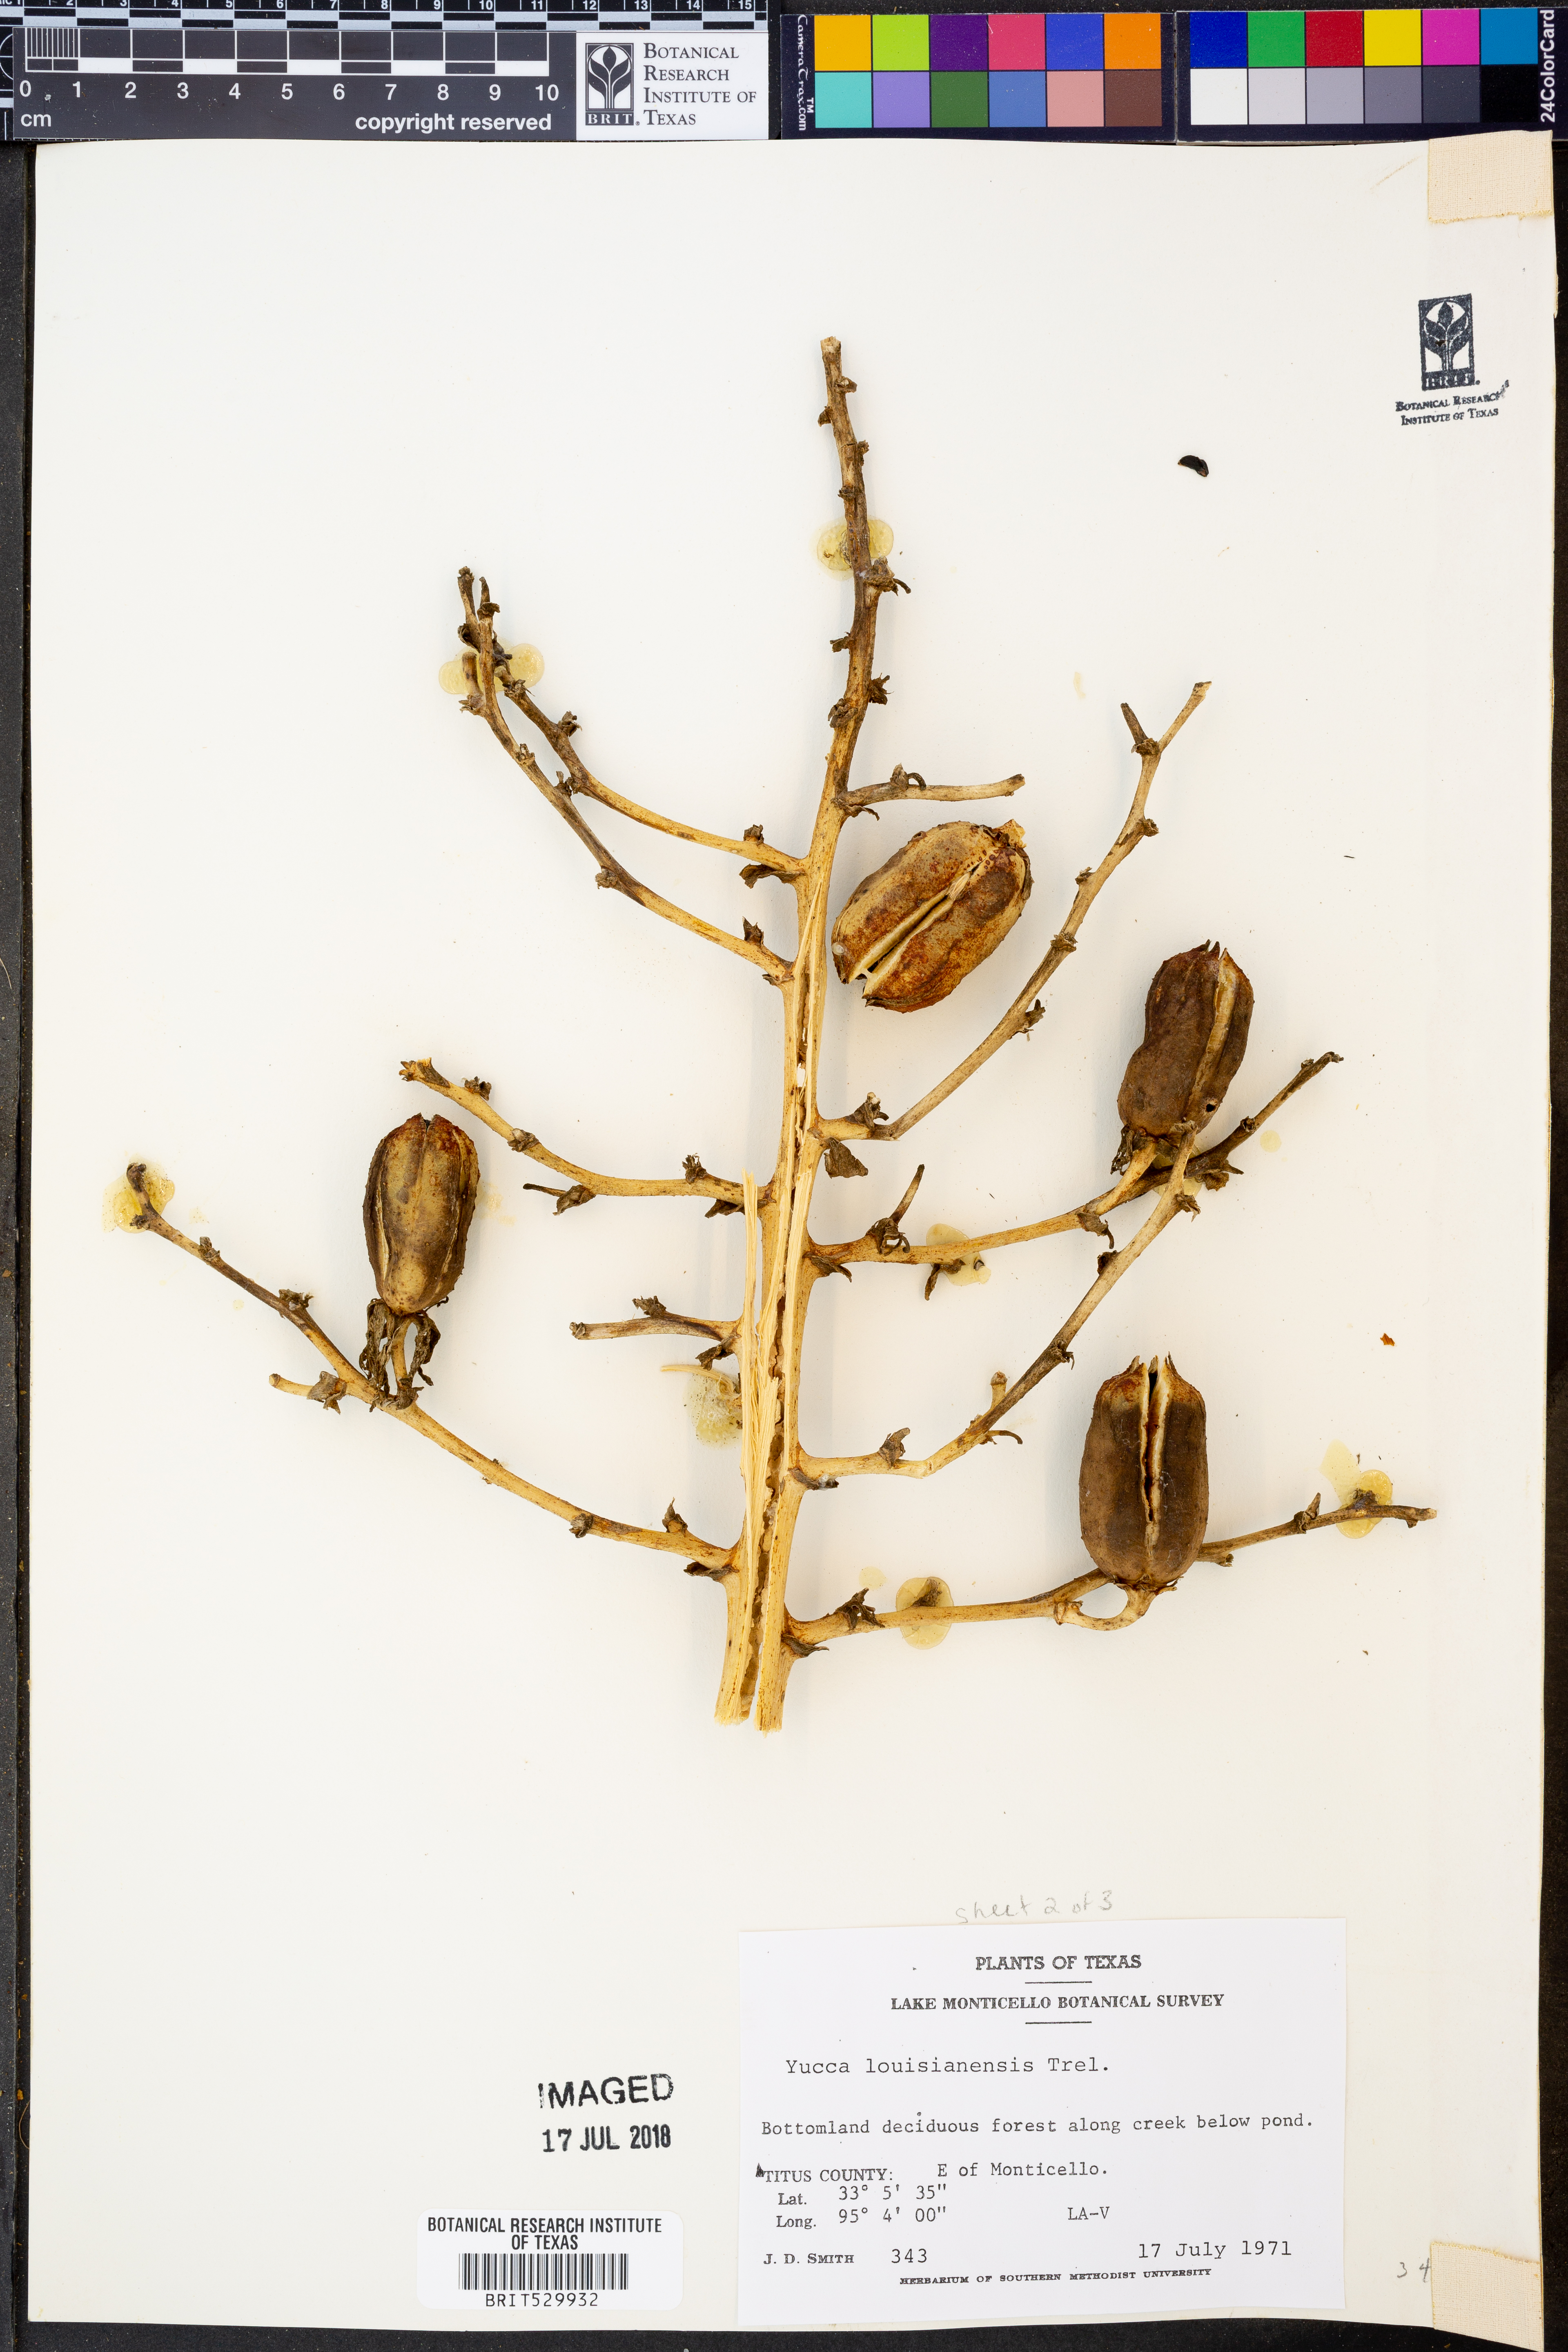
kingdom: Plantae
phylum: Tracheophyta
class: Liliopsida
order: Asparagales
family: Asparagaceae
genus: Yucca
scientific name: Yucca flaccida
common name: Adam's-needle
